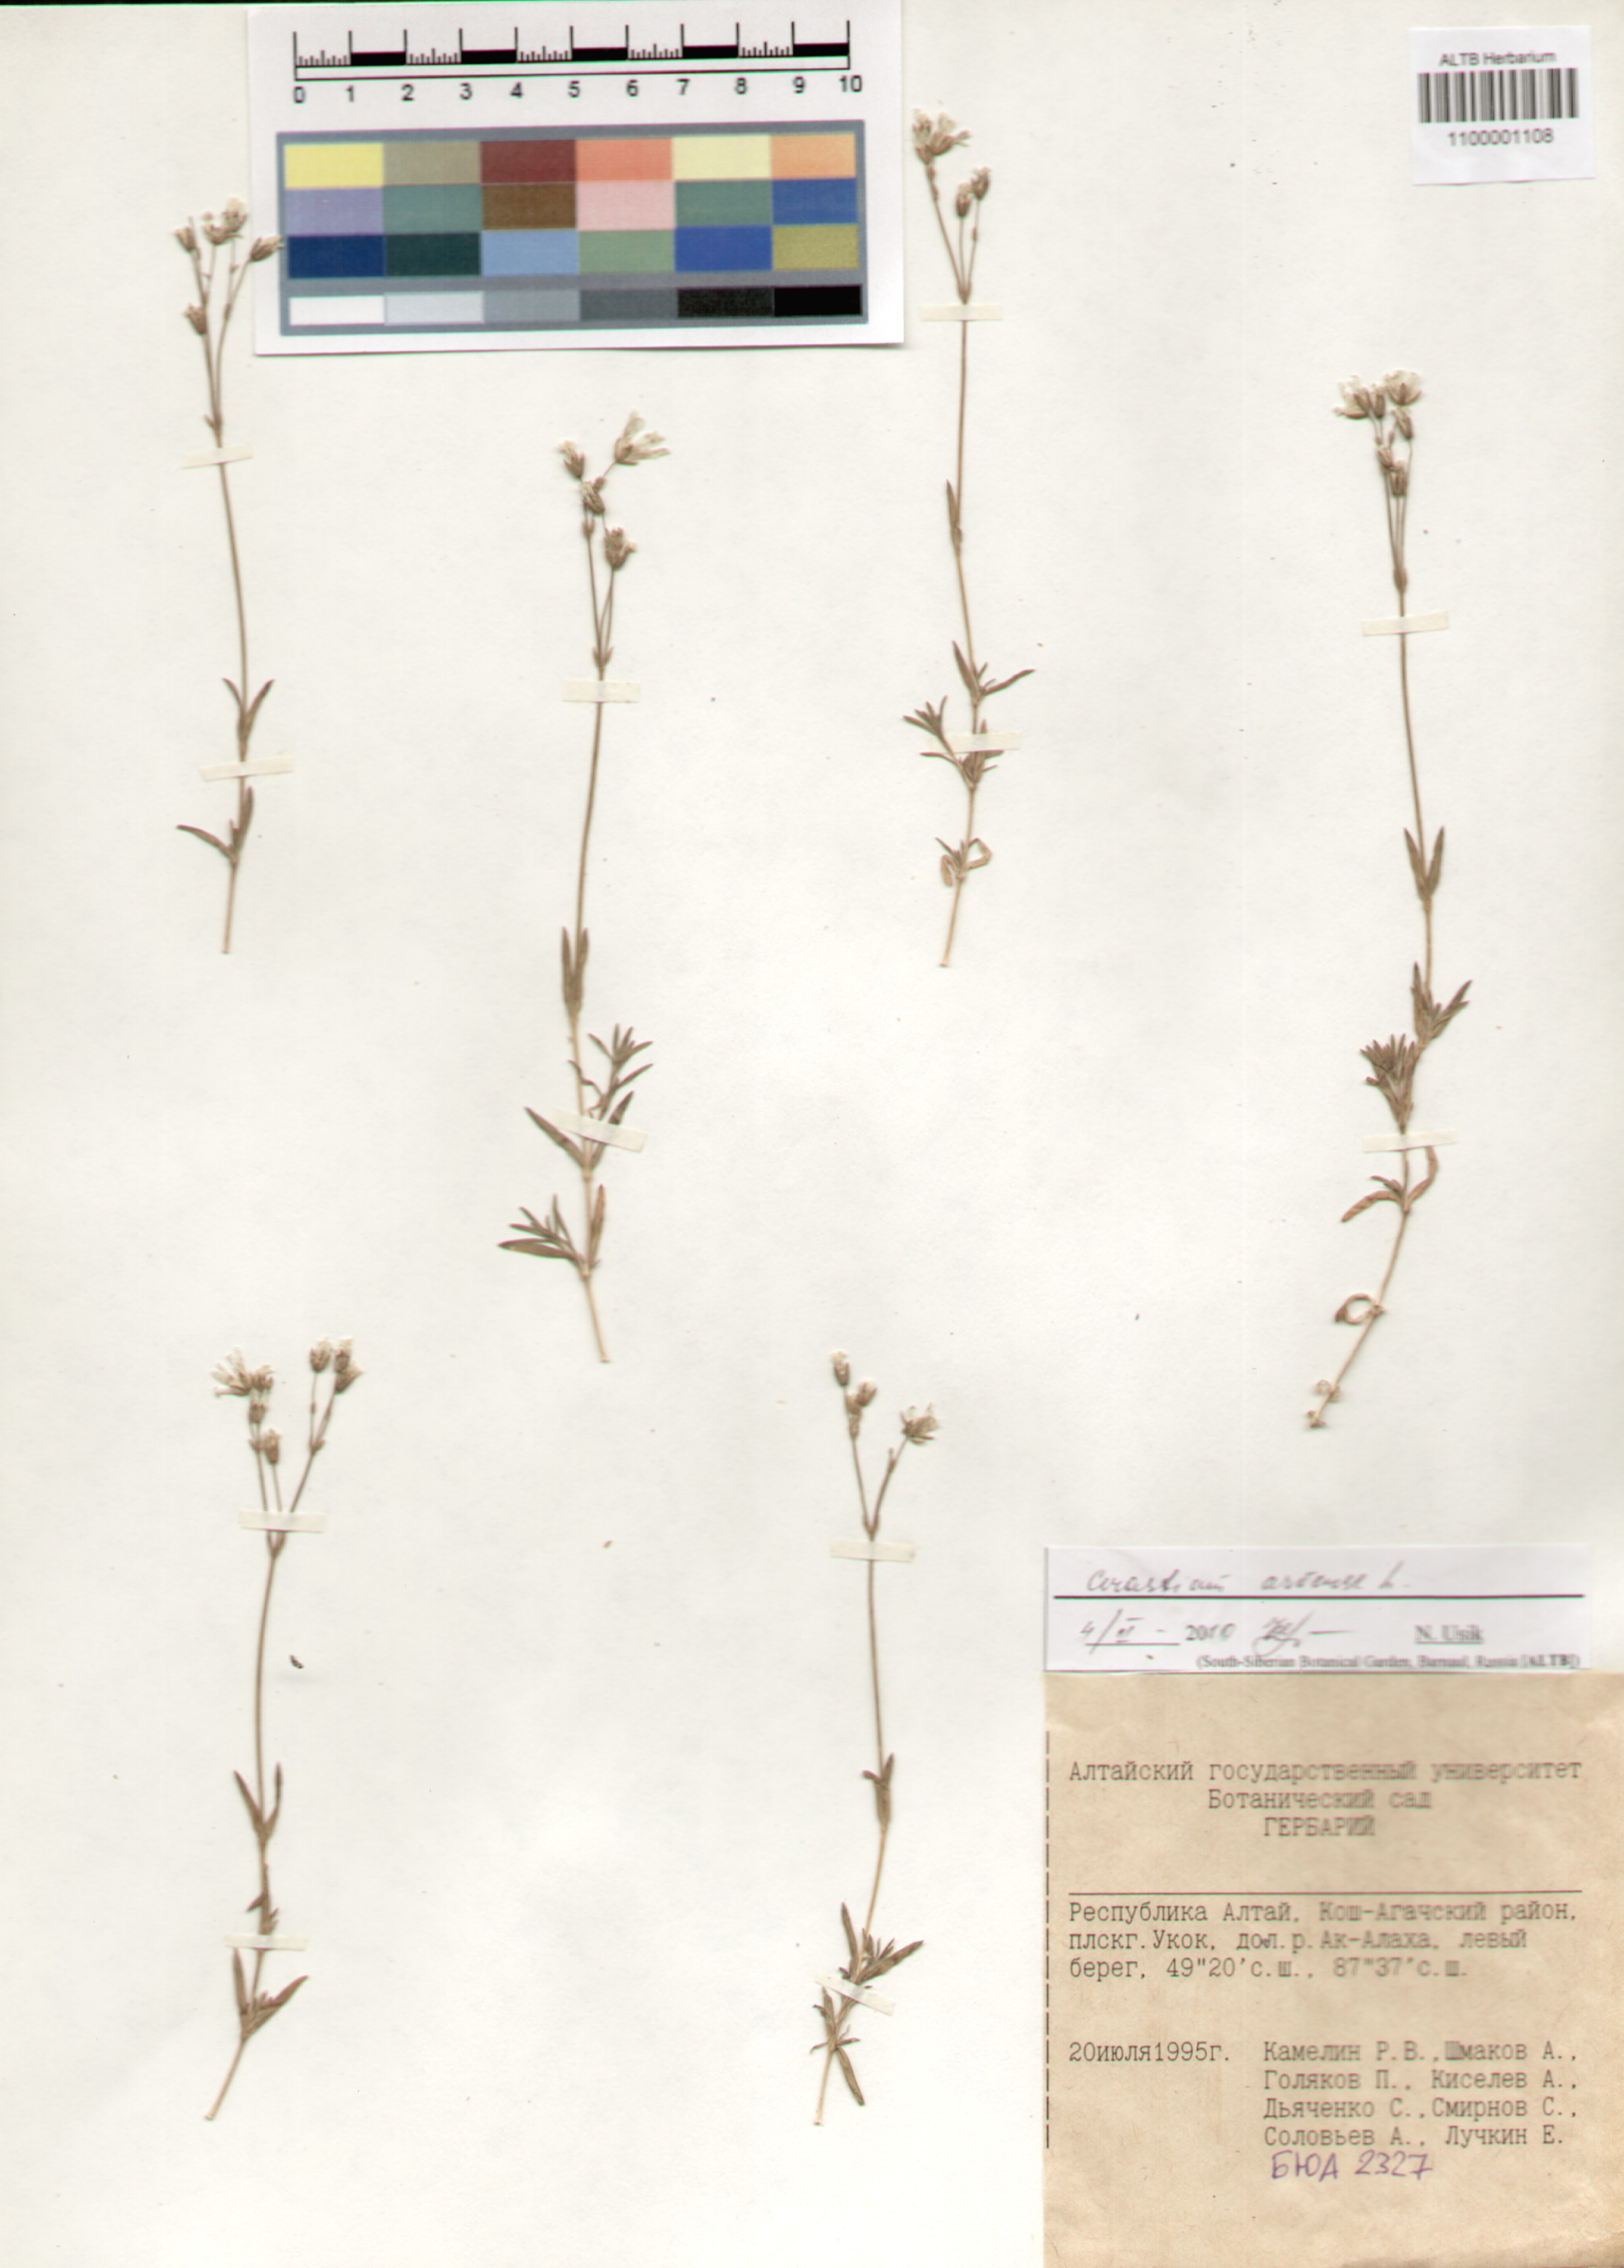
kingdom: Plantae
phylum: Tracheophyta
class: Magnoliopsida
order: Caryophyllales
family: Caryophyllaceae
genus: Cerastium
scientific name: Cerastium arvense
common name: Field mouse-ear
